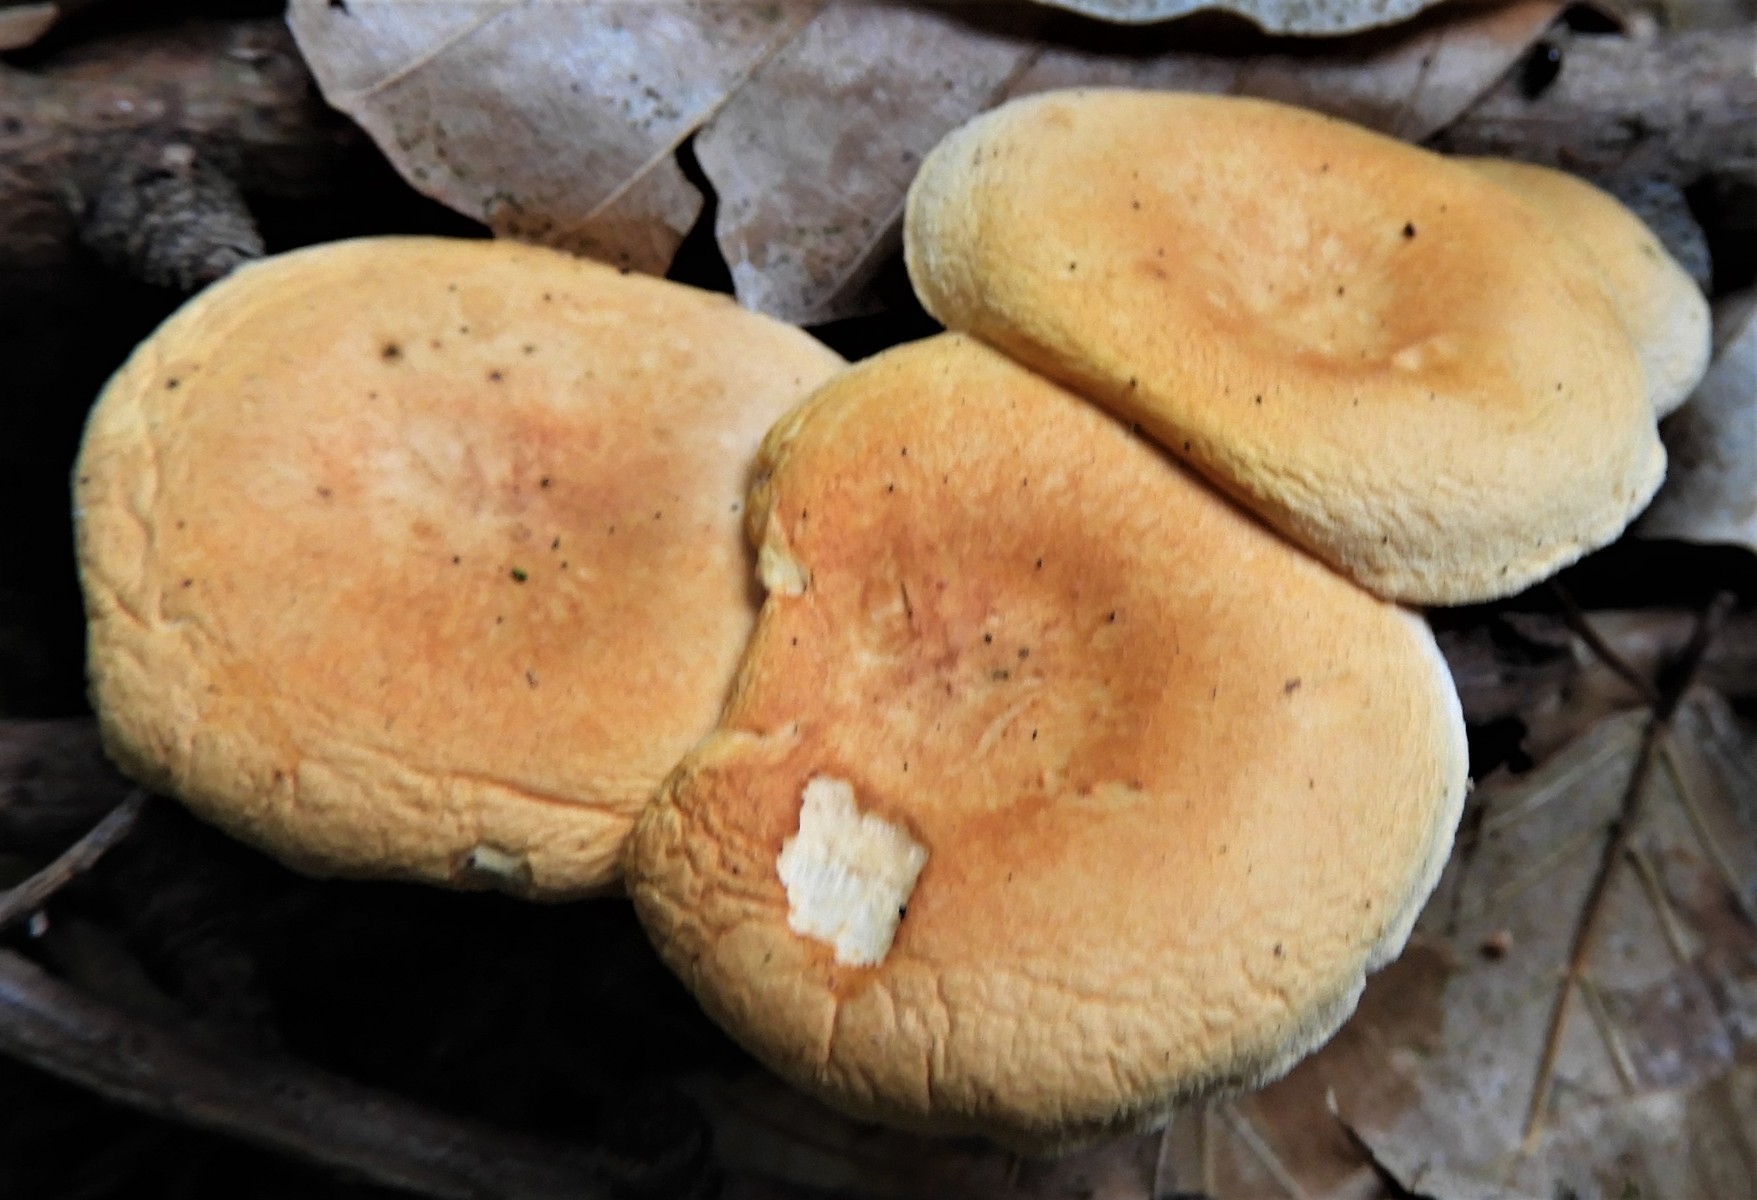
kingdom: Fungi
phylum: Basidiomycota
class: Agaricomycetes
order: Boletales
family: Hygrophoropsidaceae
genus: Hygrophoropsis
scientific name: Hygrophoropsis aurantiaca
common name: almindelig orangekantarel
